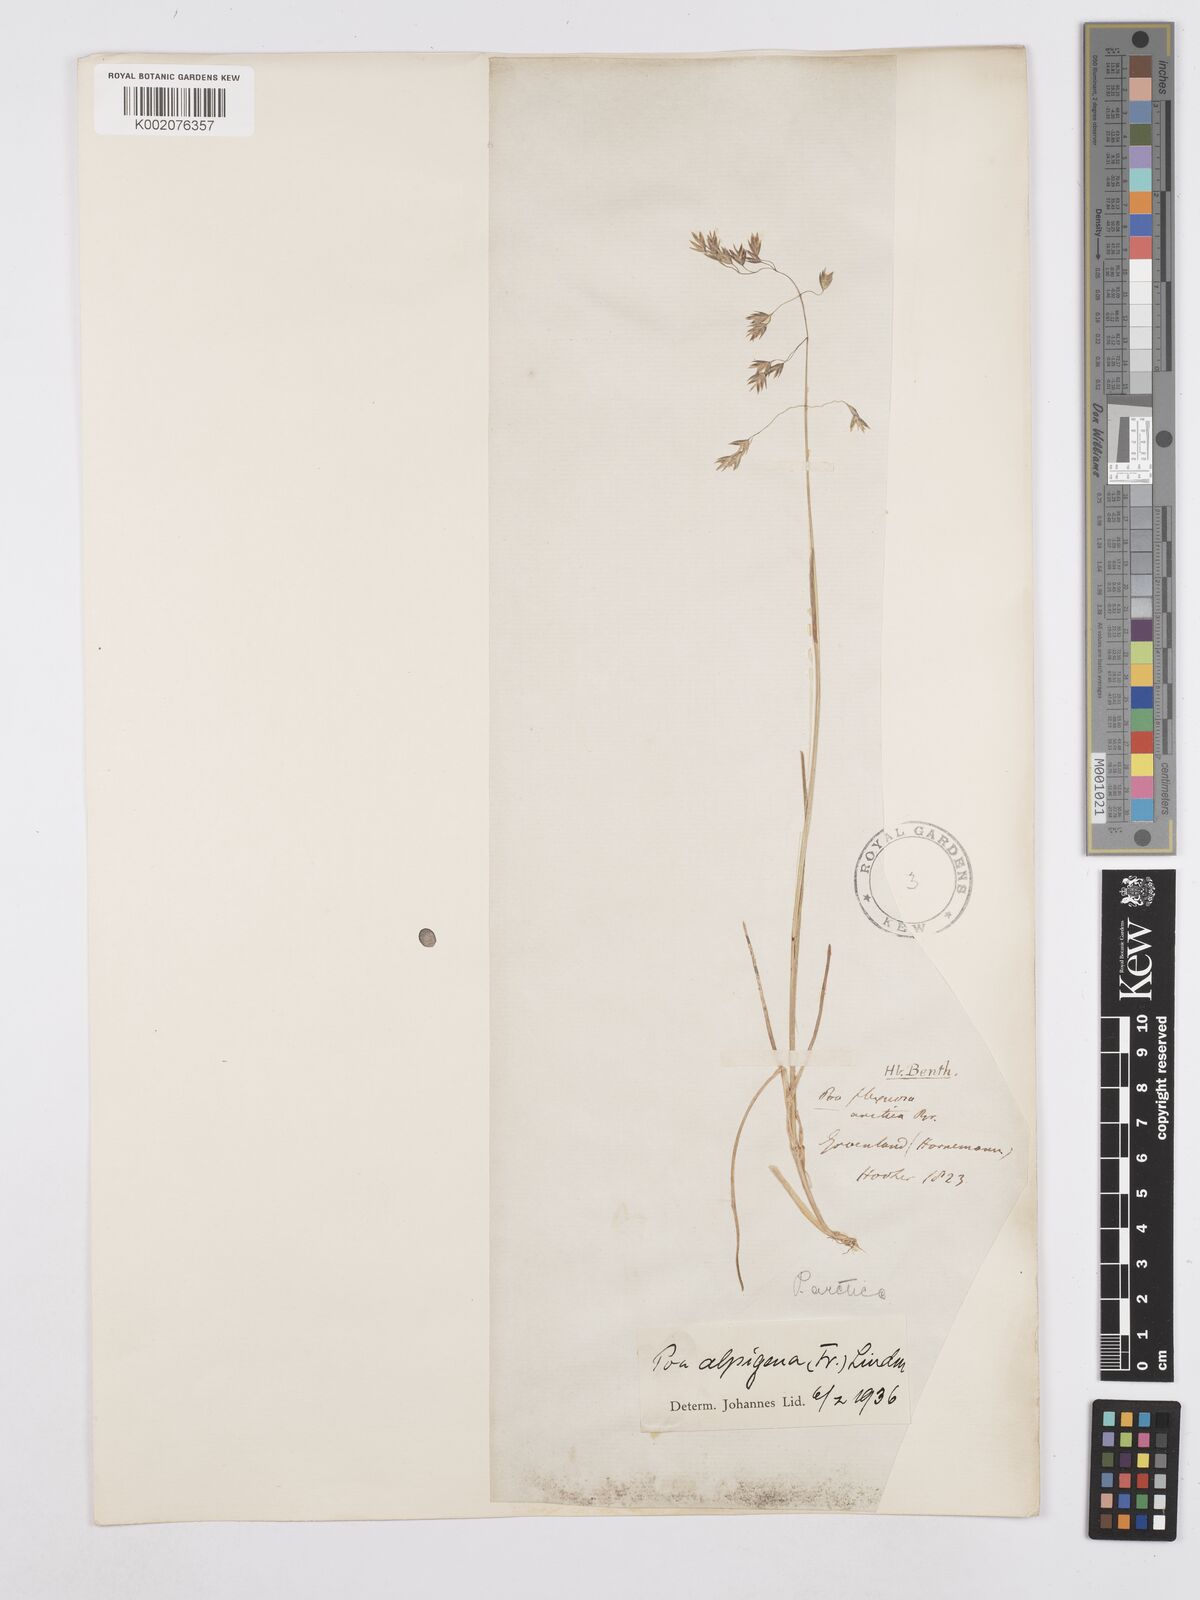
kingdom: Plantae
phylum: Tracheophyta
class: Liliopsida
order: Poales
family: Poaceae
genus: Poa
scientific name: Poa
